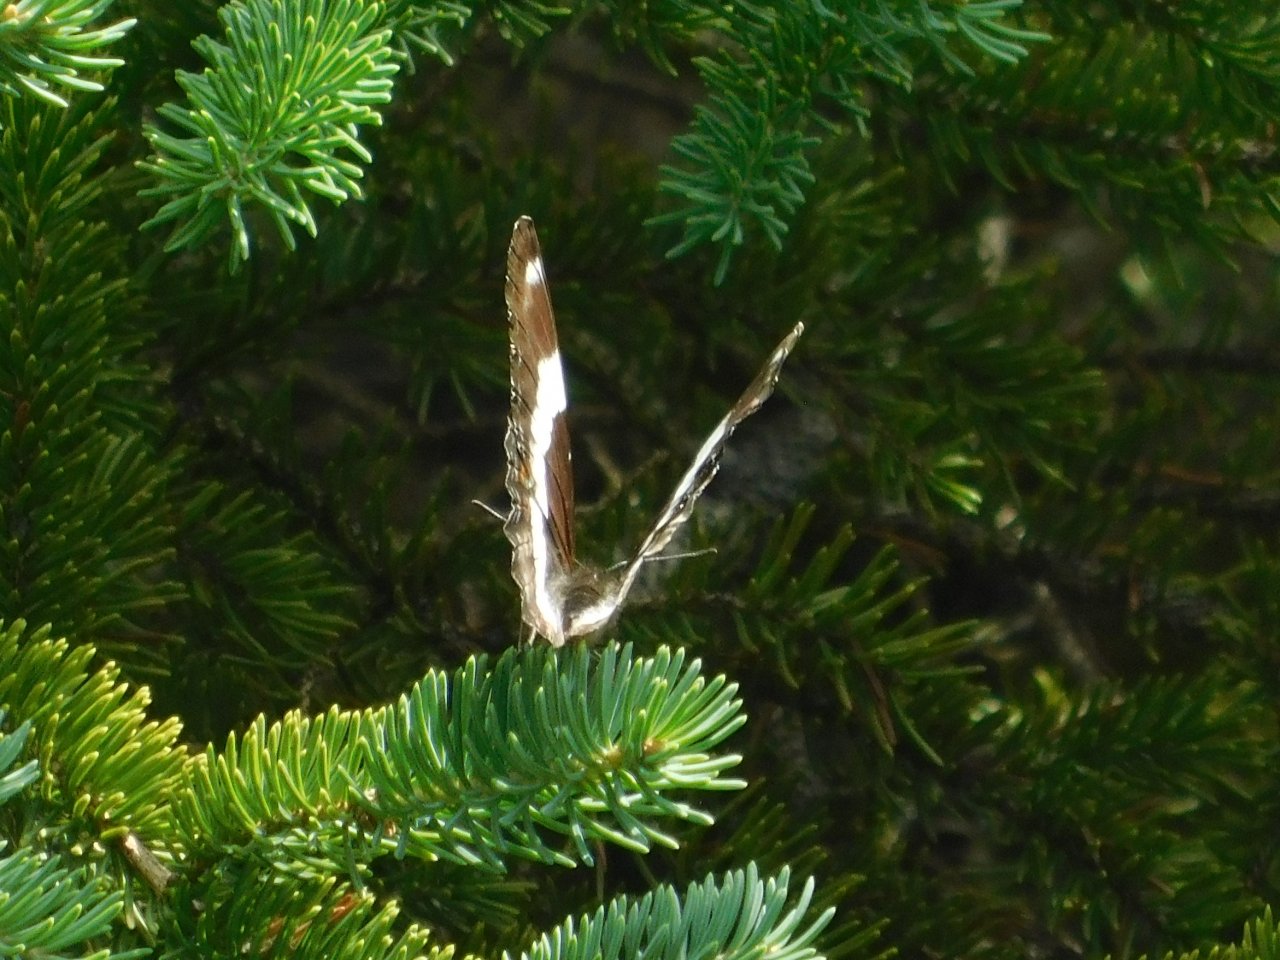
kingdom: Animalia
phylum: Arthropoda
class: Insecta
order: Lepidoptera
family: Nymphalidae
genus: Limenitis
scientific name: Limenitis arthemis
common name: Red-spotted Admiral
